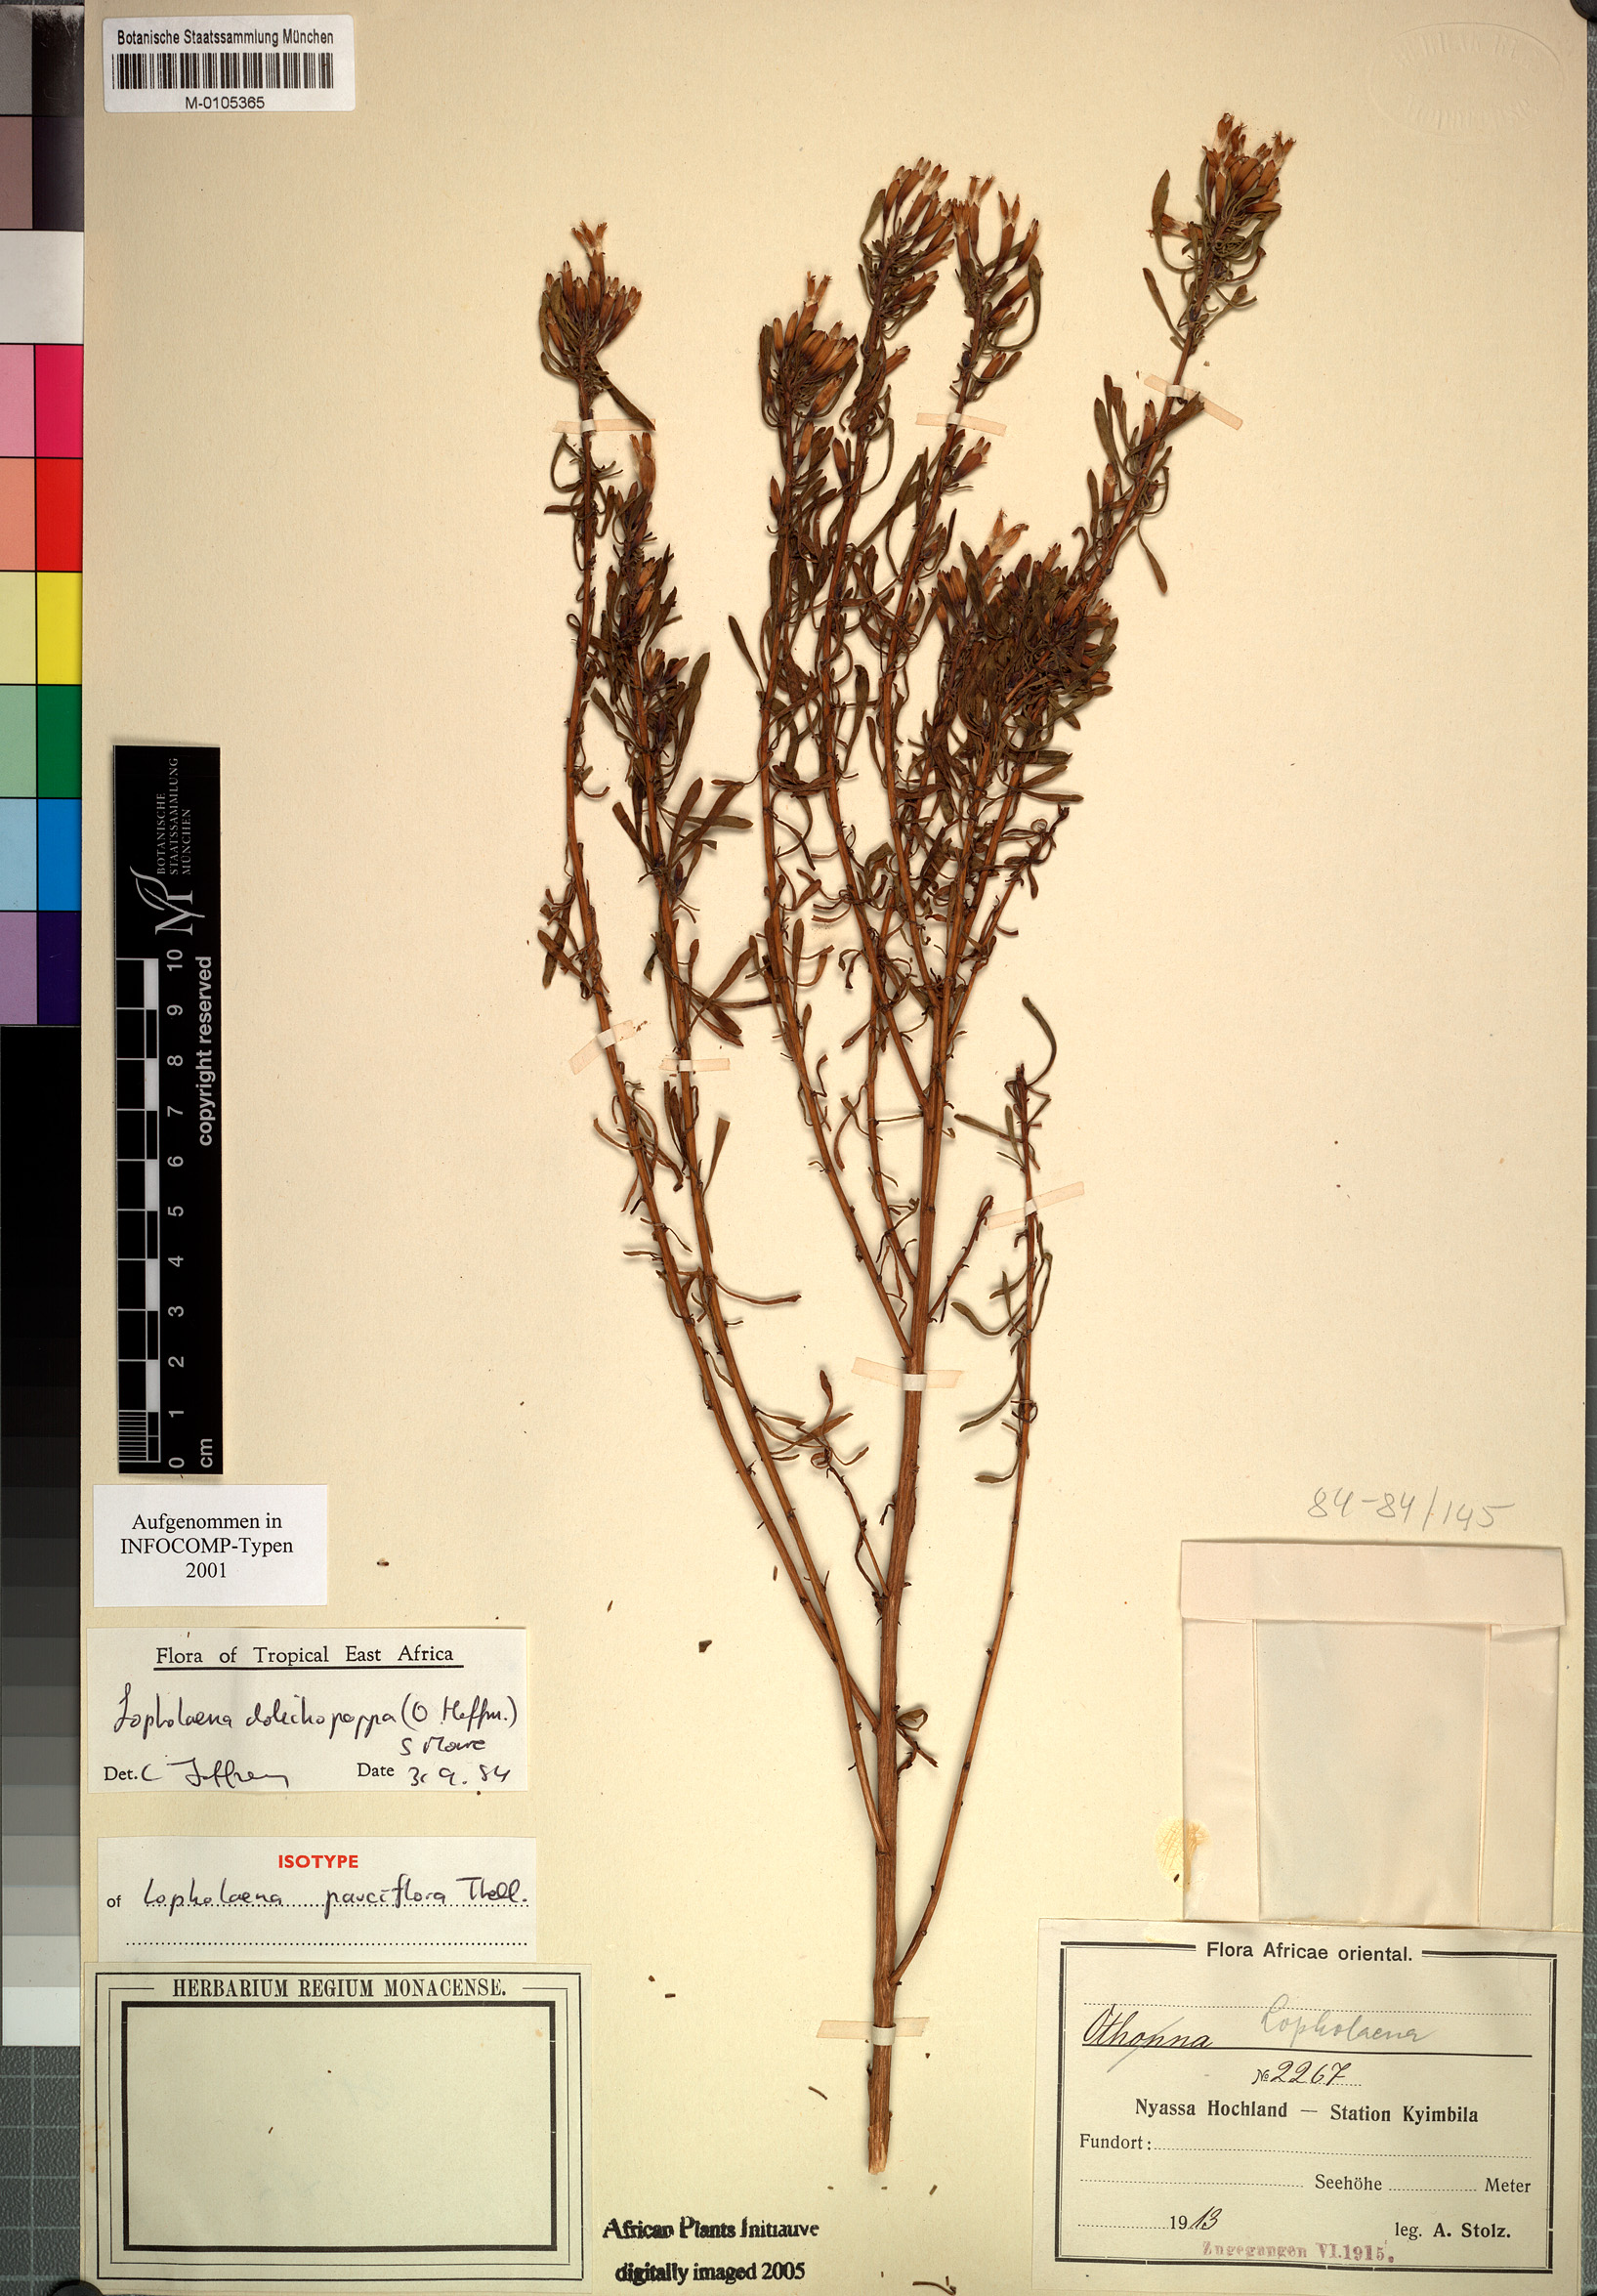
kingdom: Plantae
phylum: Tracheophyta
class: Magnoliopsida
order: Asterales
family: Asteraceae
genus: Lopholaena
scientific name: Lopholaena dolichopappa
